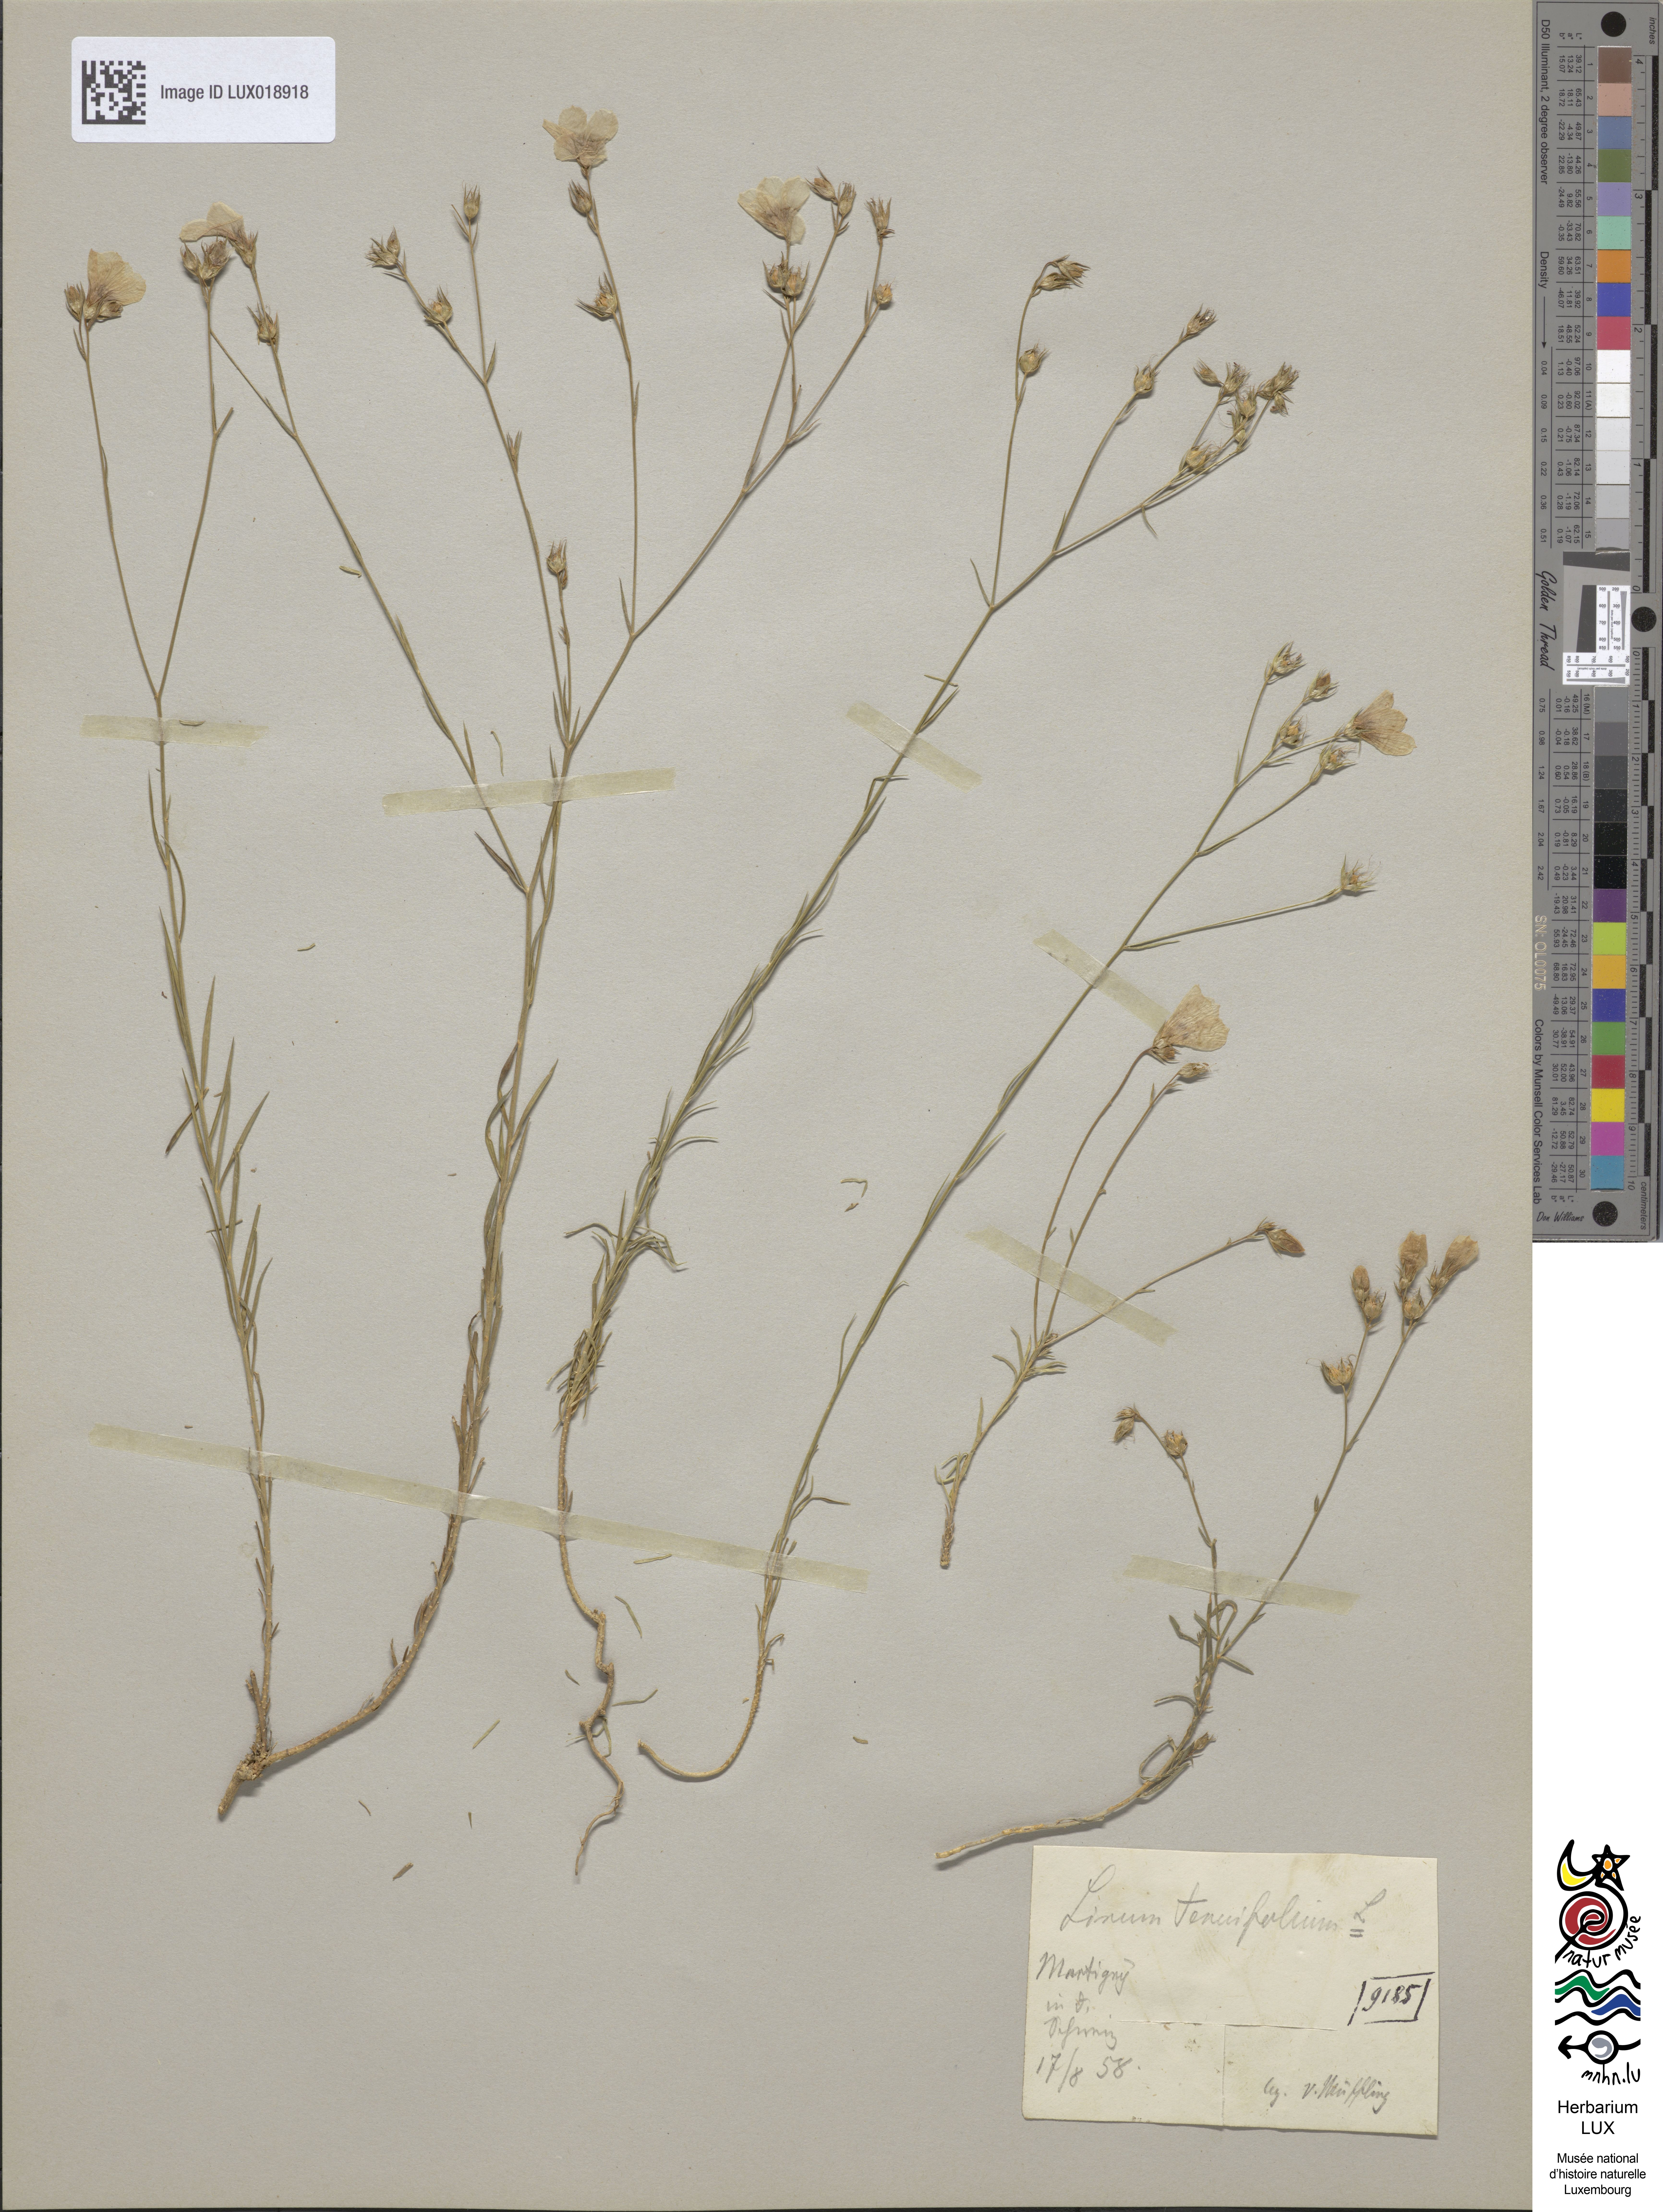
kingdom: Plantae
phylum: Tracheophyta
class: Magnoliopsida
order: Malpighiales
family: Linaceae
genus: Linum
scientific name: Linum tenuifolium
